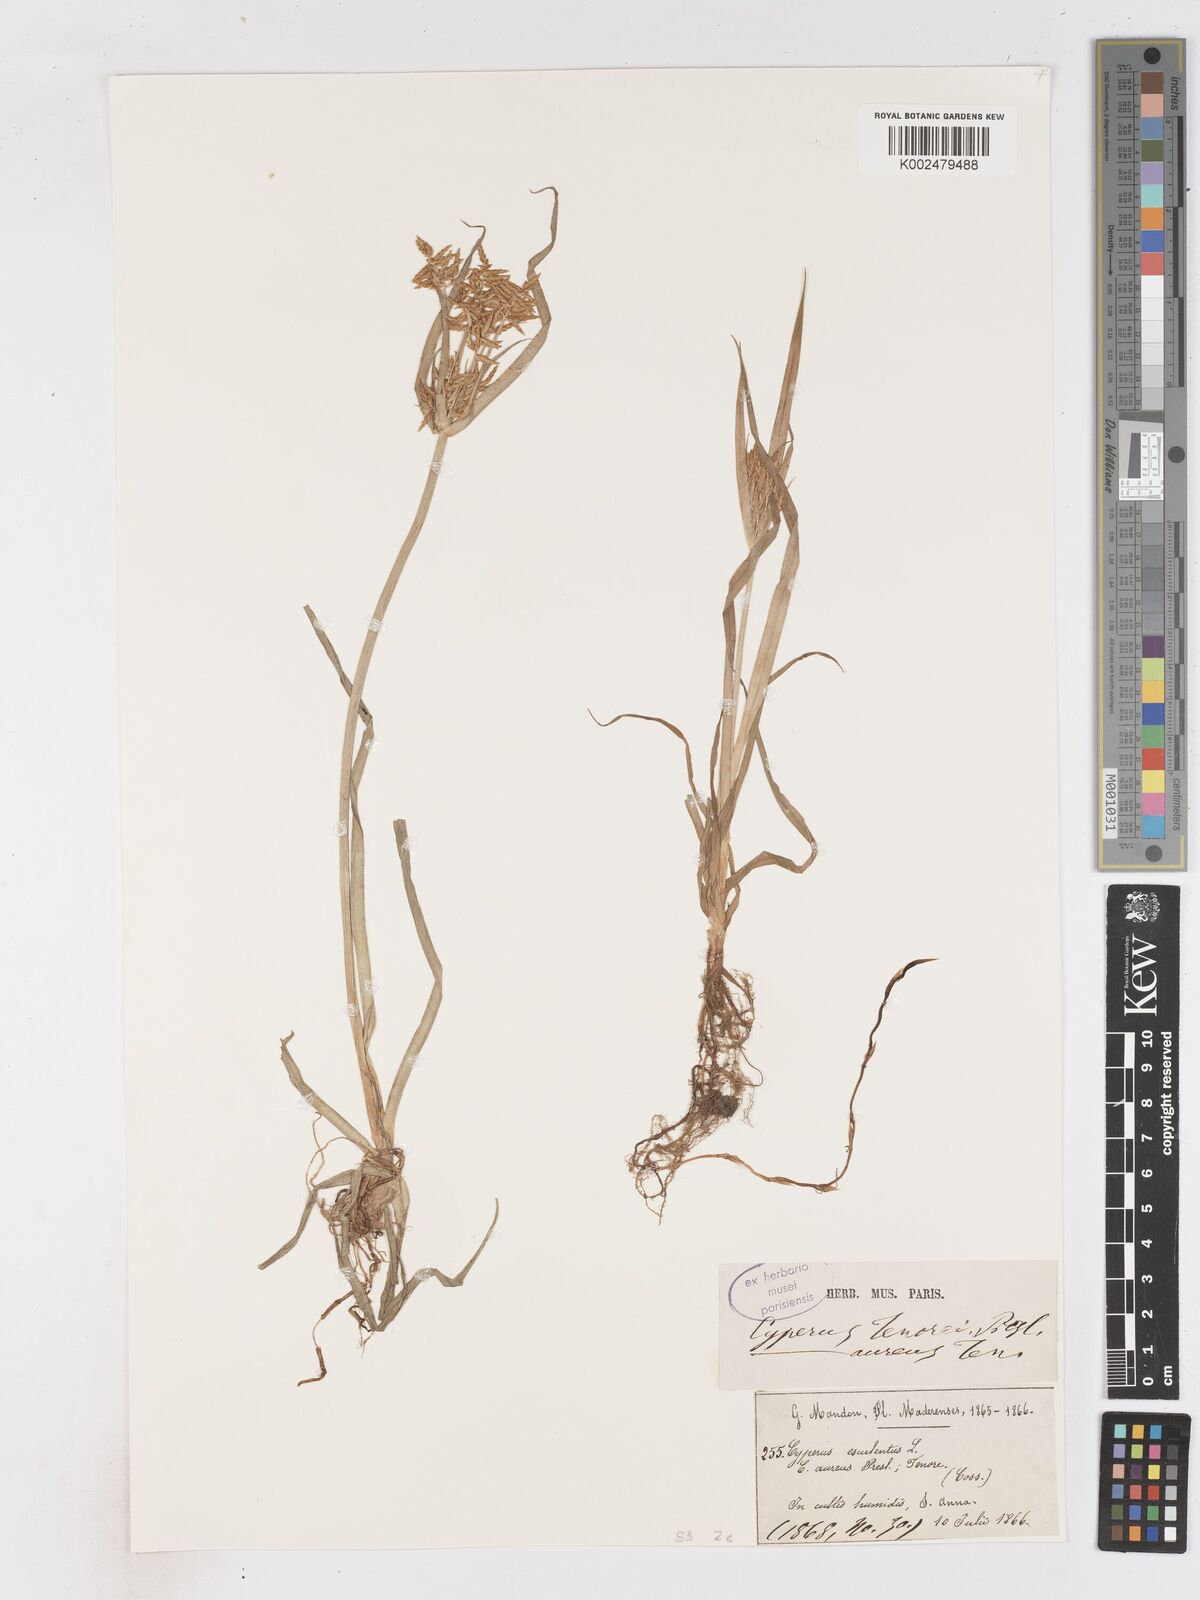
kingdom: Plantae
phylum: Tracheophyta
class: Liliopsida
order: Poales
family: Cyperaceae
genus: Cyperus
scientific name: Cyperus esculentus
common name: Yellow nutsedge
